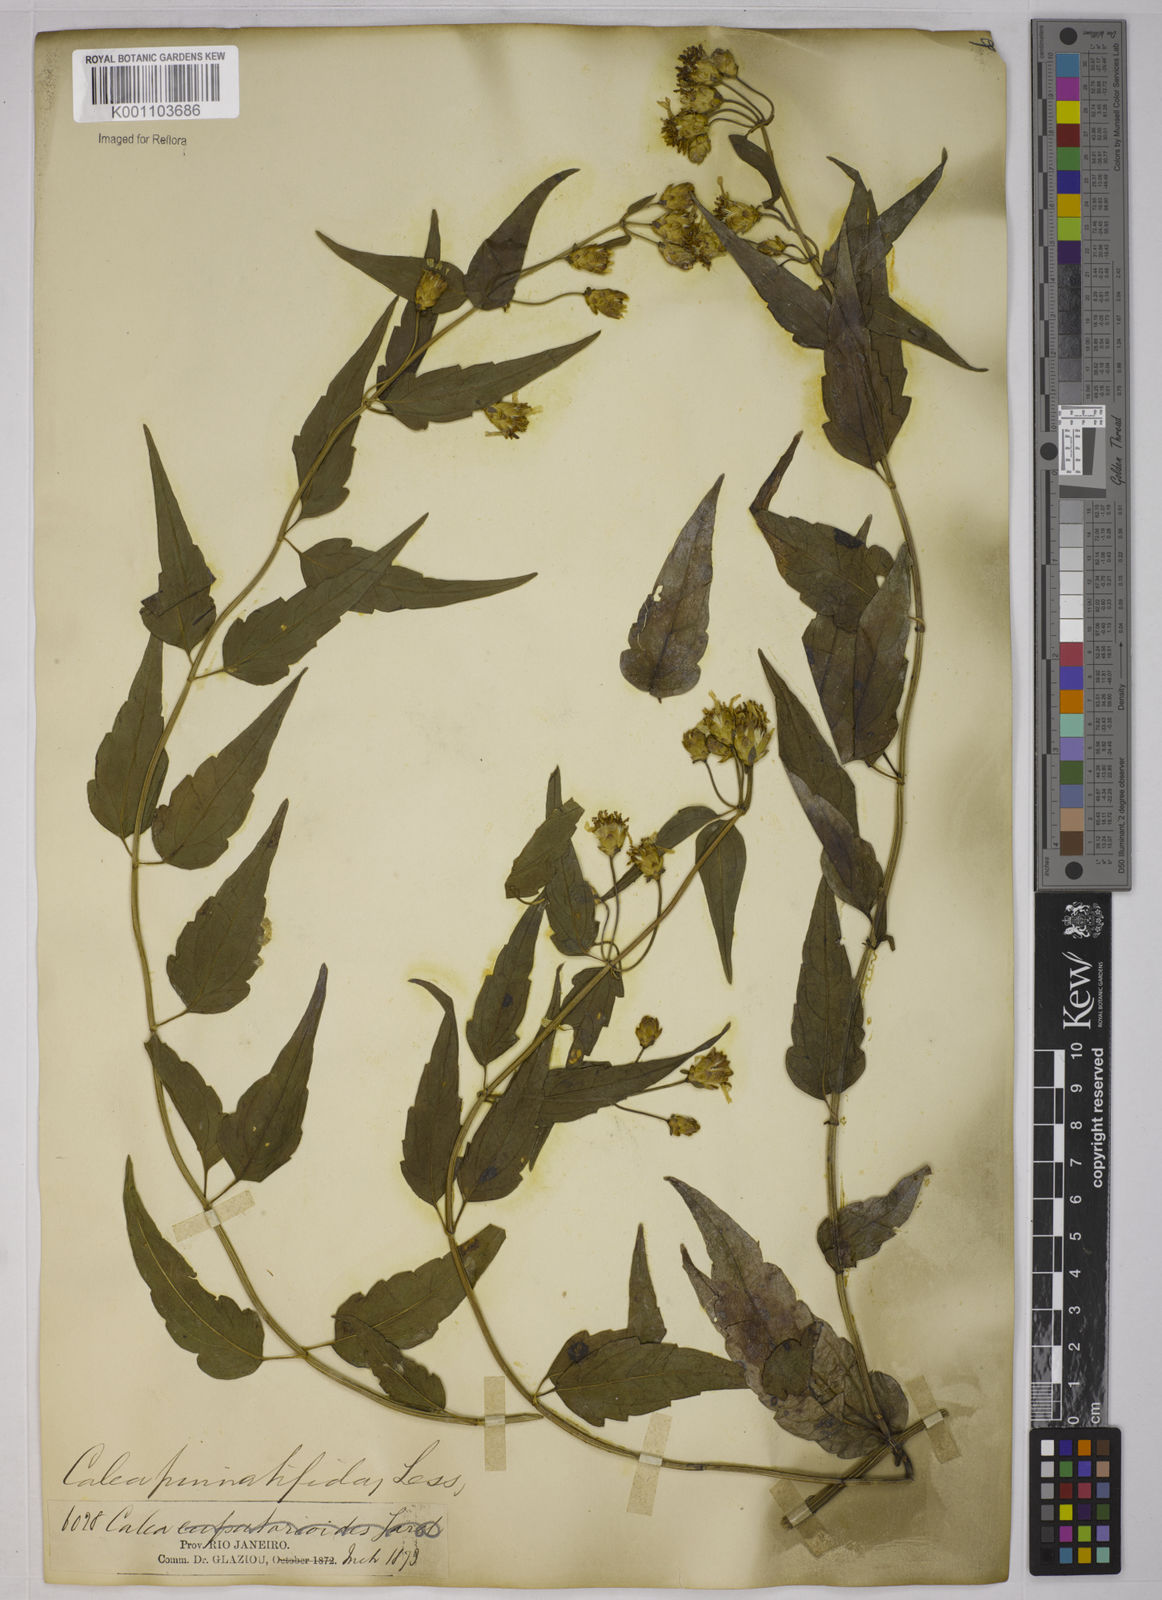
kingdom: Plantae
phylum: Tracheophyta
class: Magnoliopsida
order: Asterales
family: Asteraceae
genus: Calea
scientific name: Calea
